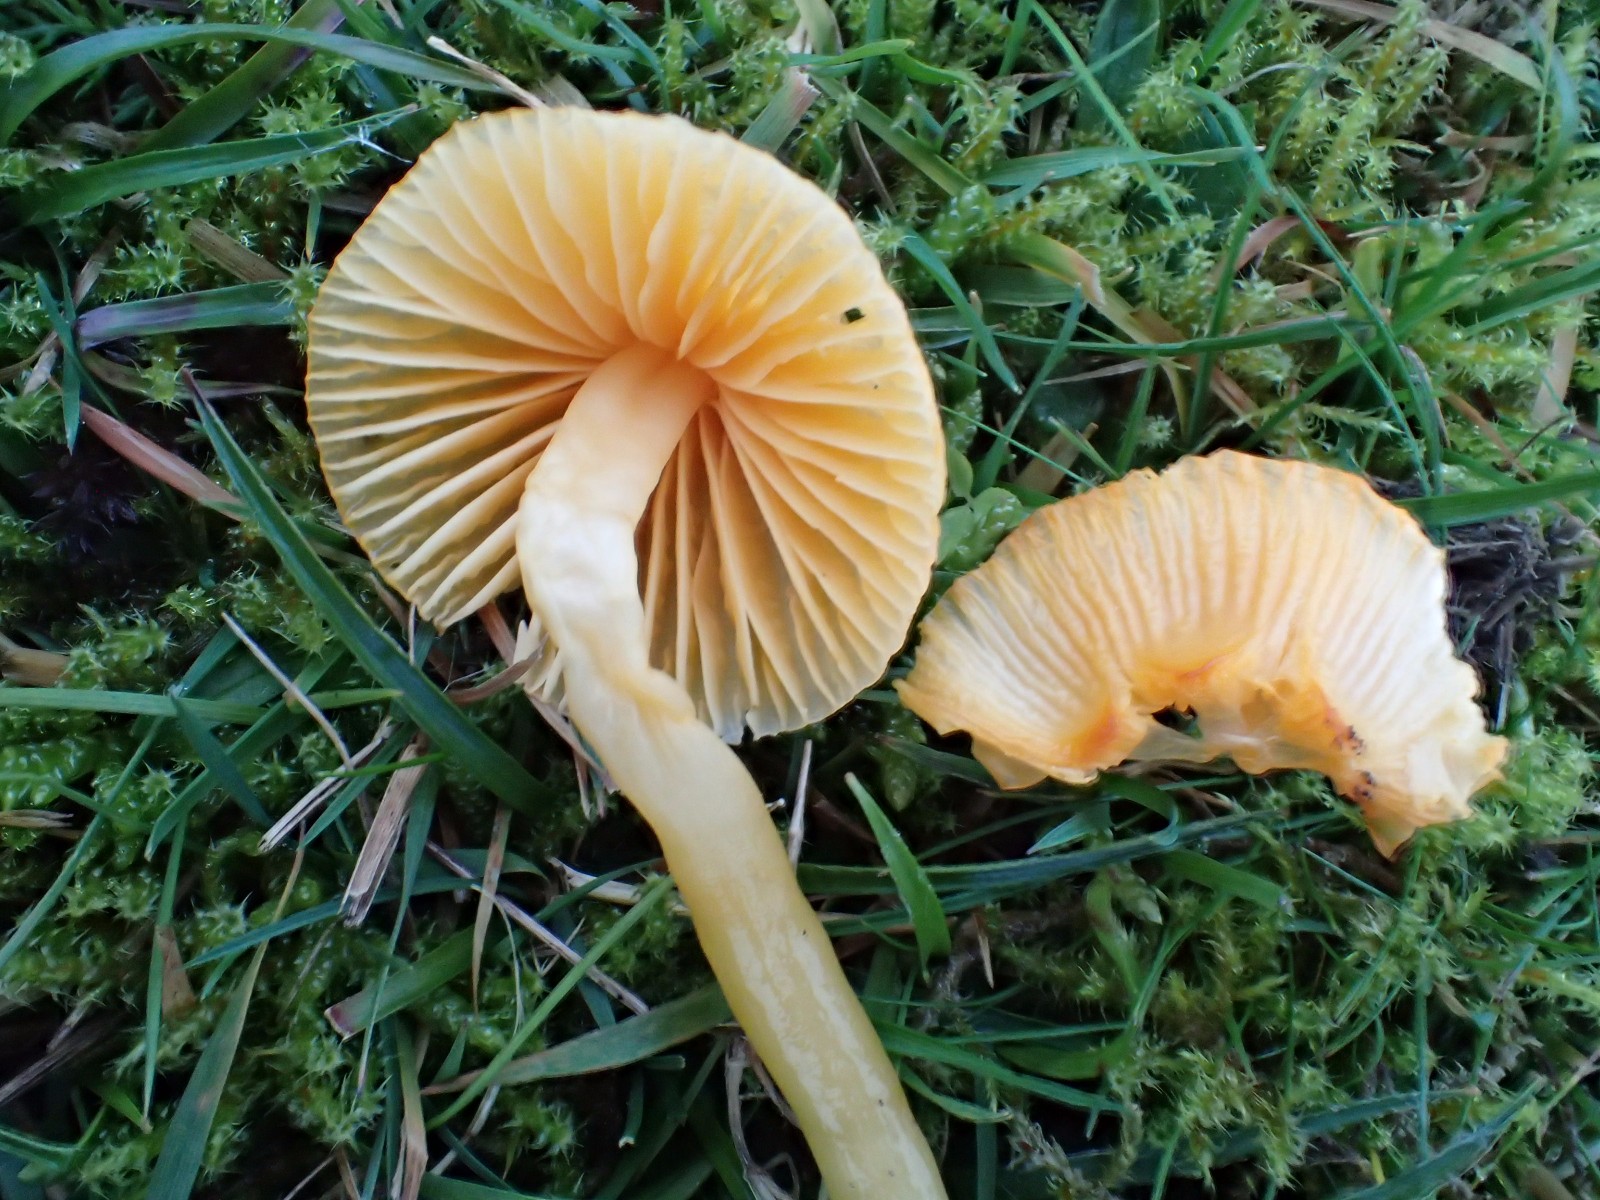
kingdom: Fungi
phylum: Basidiomycota
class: Agaricomycetes
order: Agaricales
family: Hygrophoraceae
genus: Gliophorus
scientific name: Gliophorus psittacinus
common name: papegøje-vokshat
